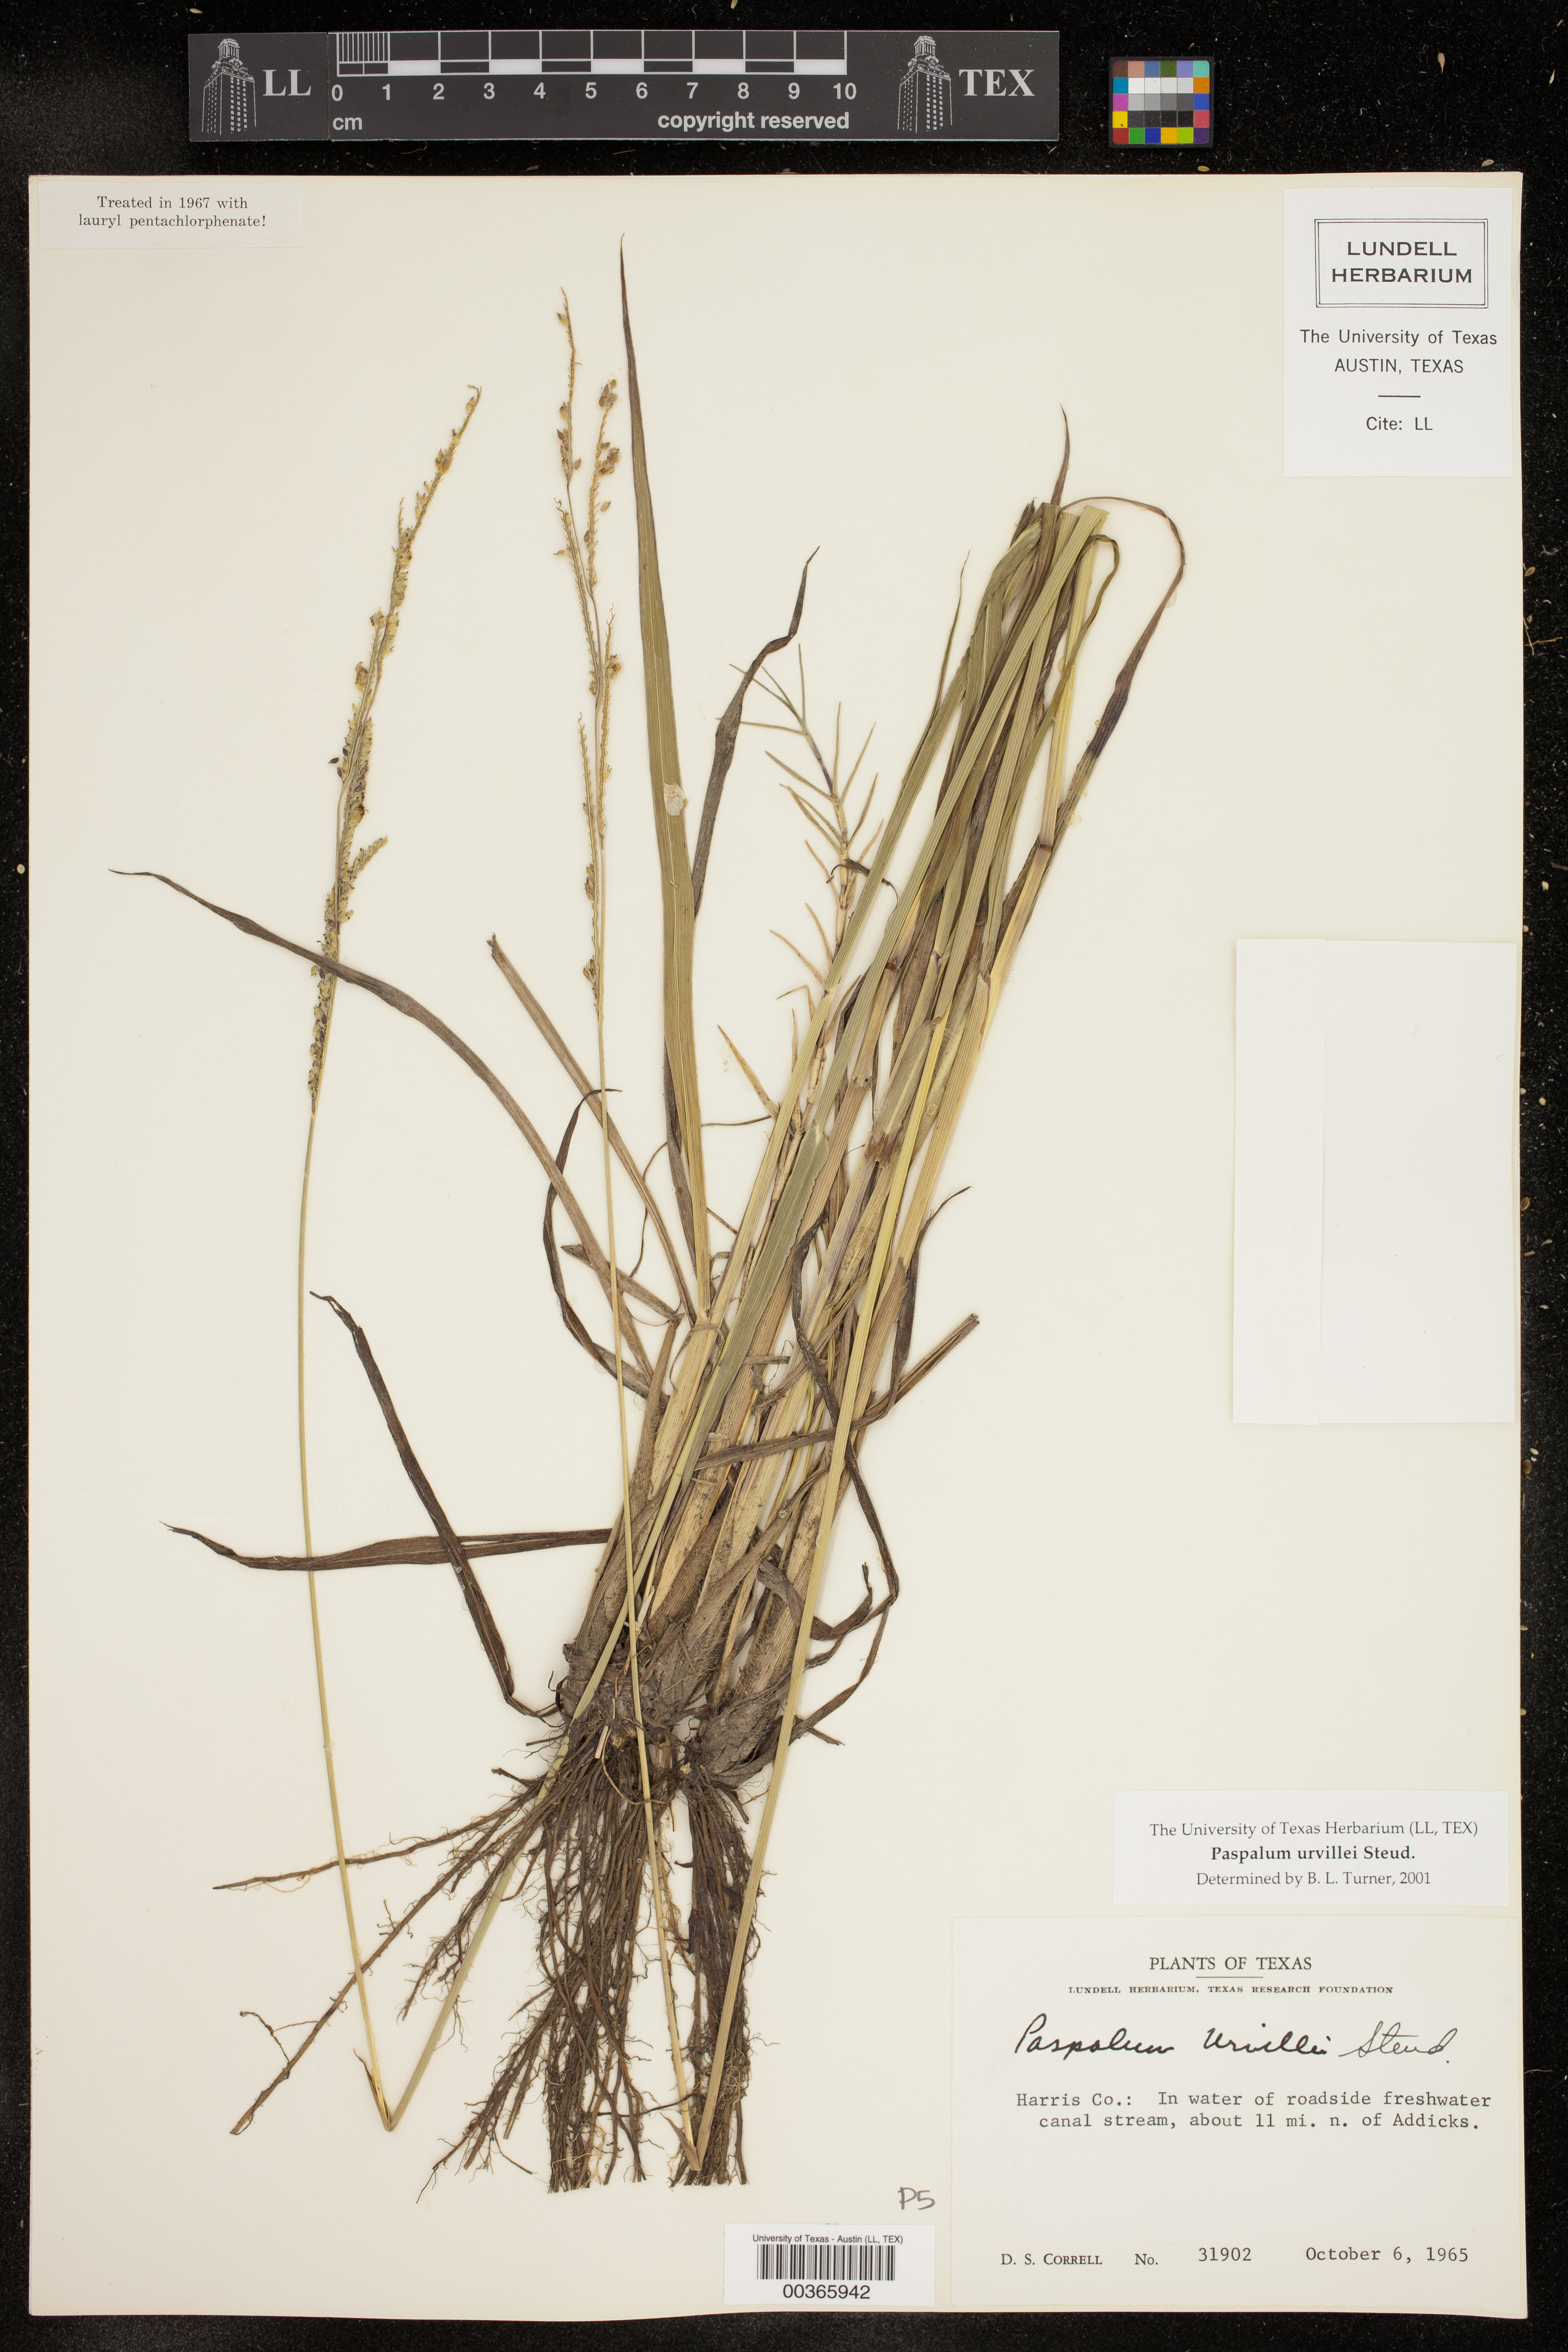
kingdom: Plantae
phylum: Tracheophyta
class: Liliopsida
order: Poales
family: Poaceae
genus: Paspalum
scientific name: Paspalum urvillei
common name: Vasey's grass
